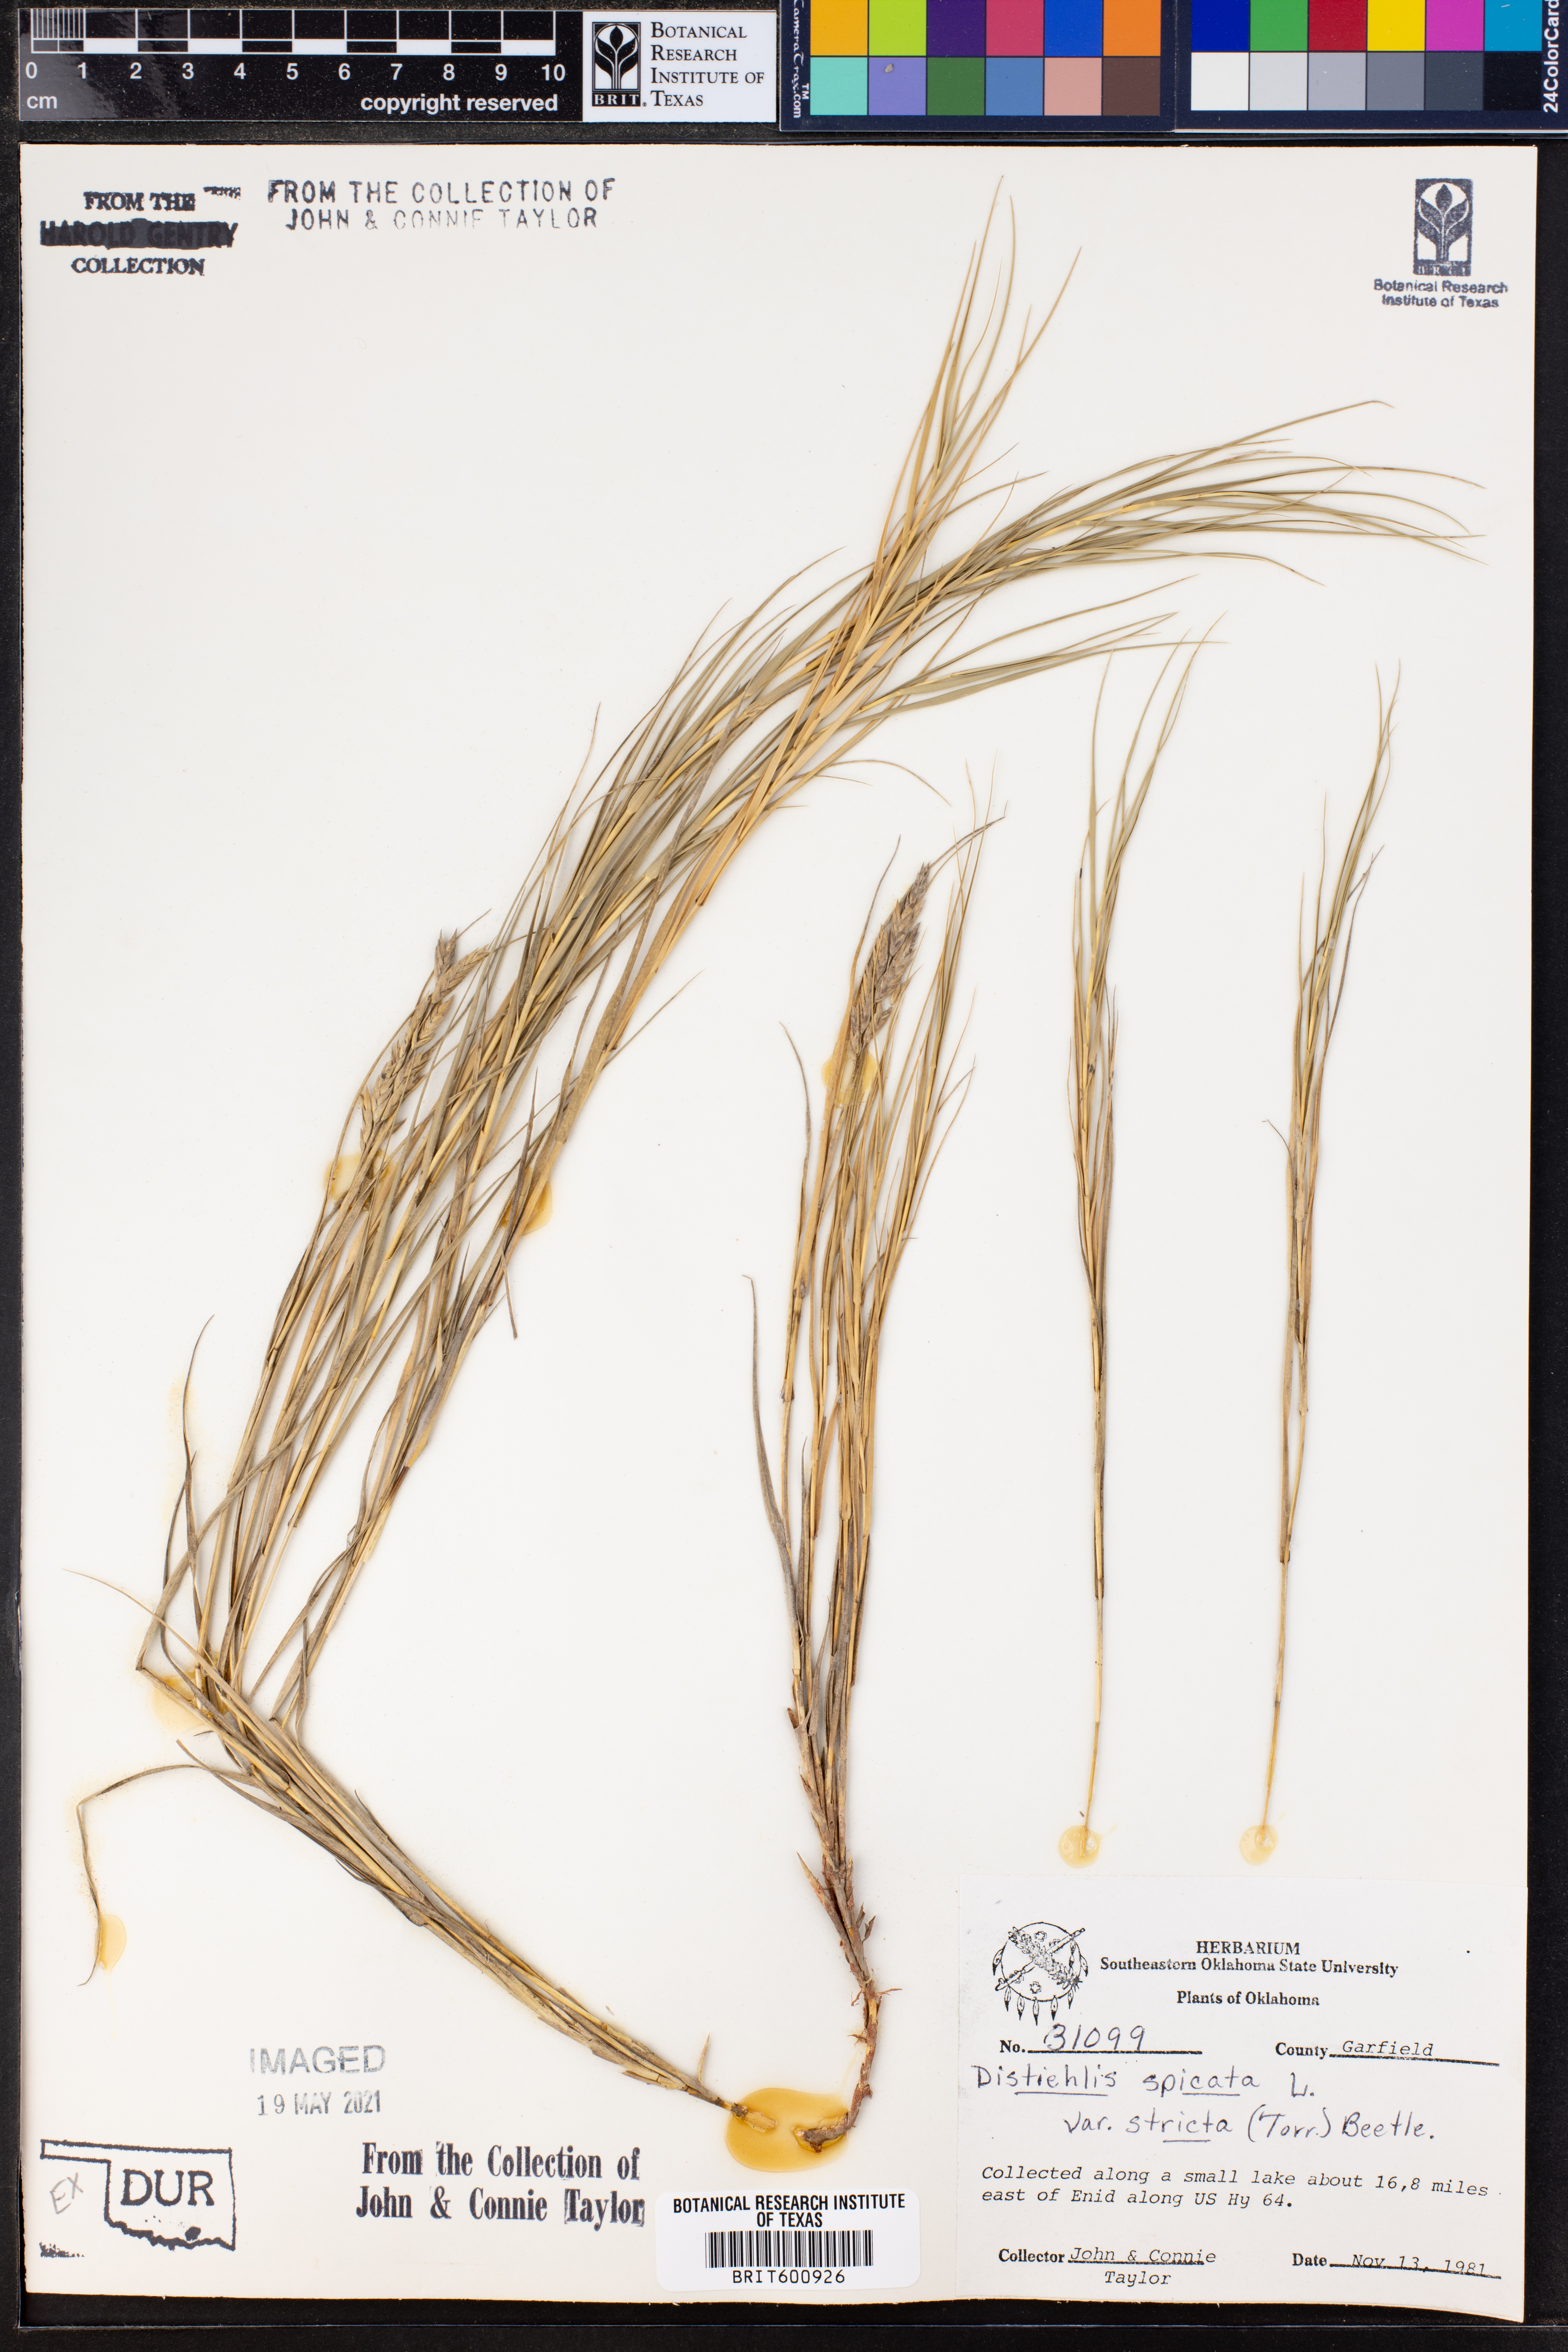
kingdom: Plantae
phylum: Tracheophyta
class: Liliopsida
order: Poales
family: Poaceae
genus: Distichlis
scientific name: Distichlis spicata
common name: Saltgrass
